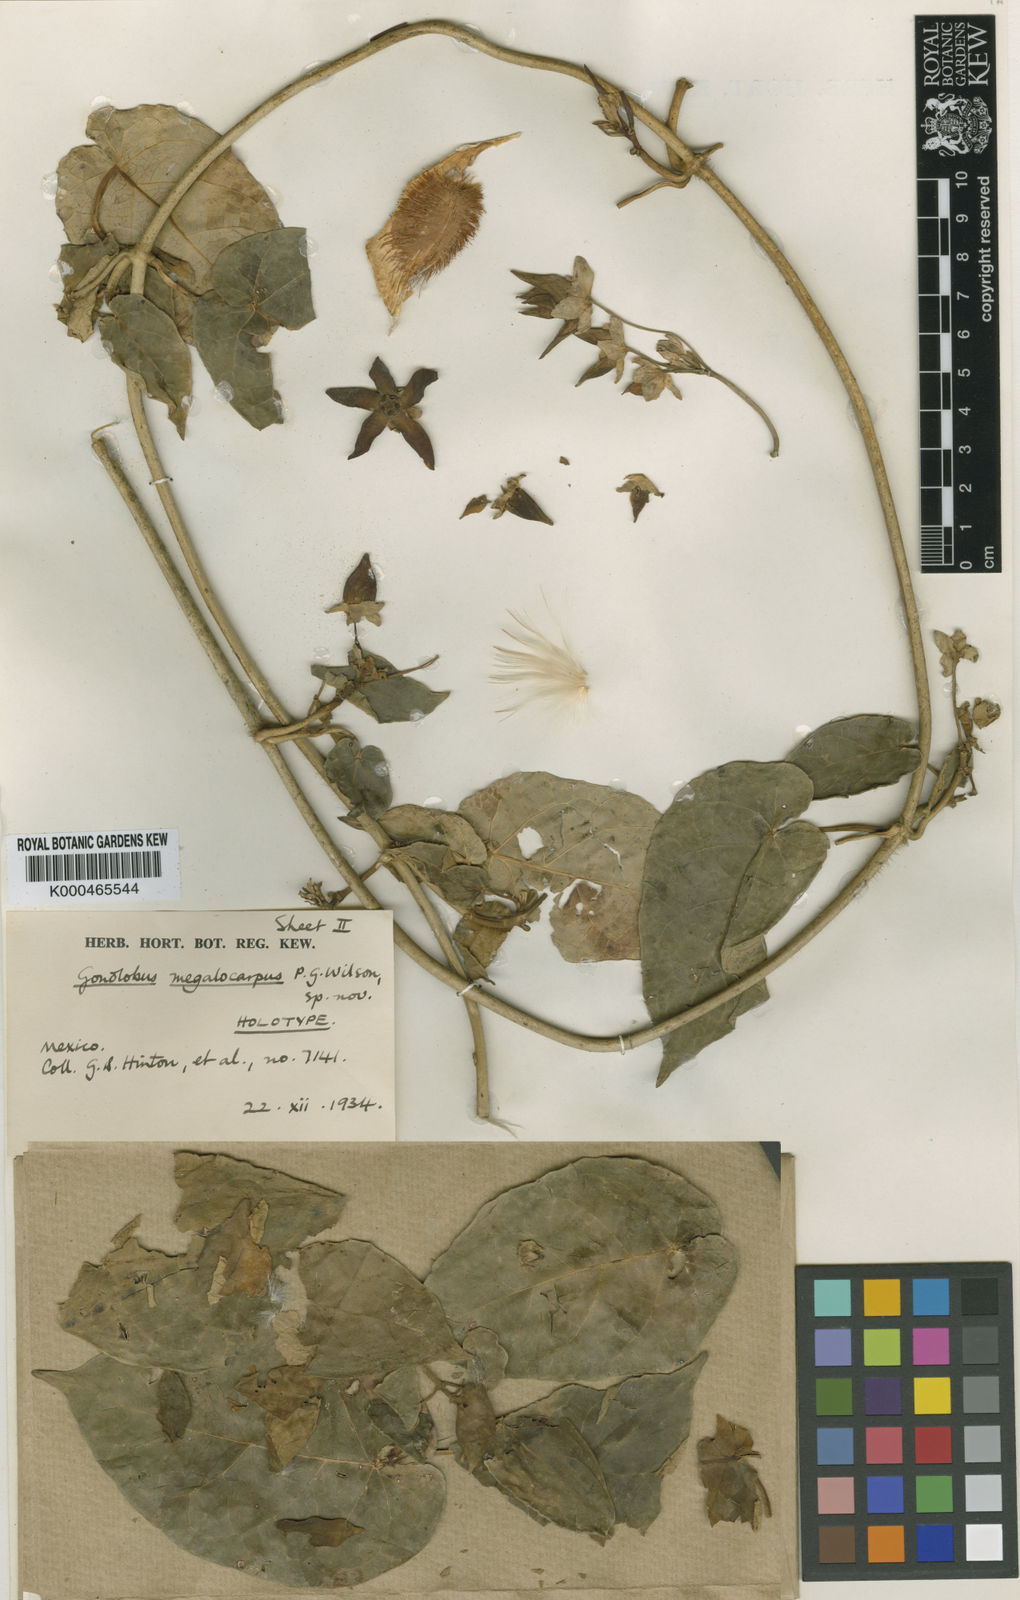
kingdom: Plantae
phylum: Tracheophyta
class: Magnoliopsida
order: Gentianales
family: Apocynaceae
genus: Gonolobus
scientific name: Gonolobus
